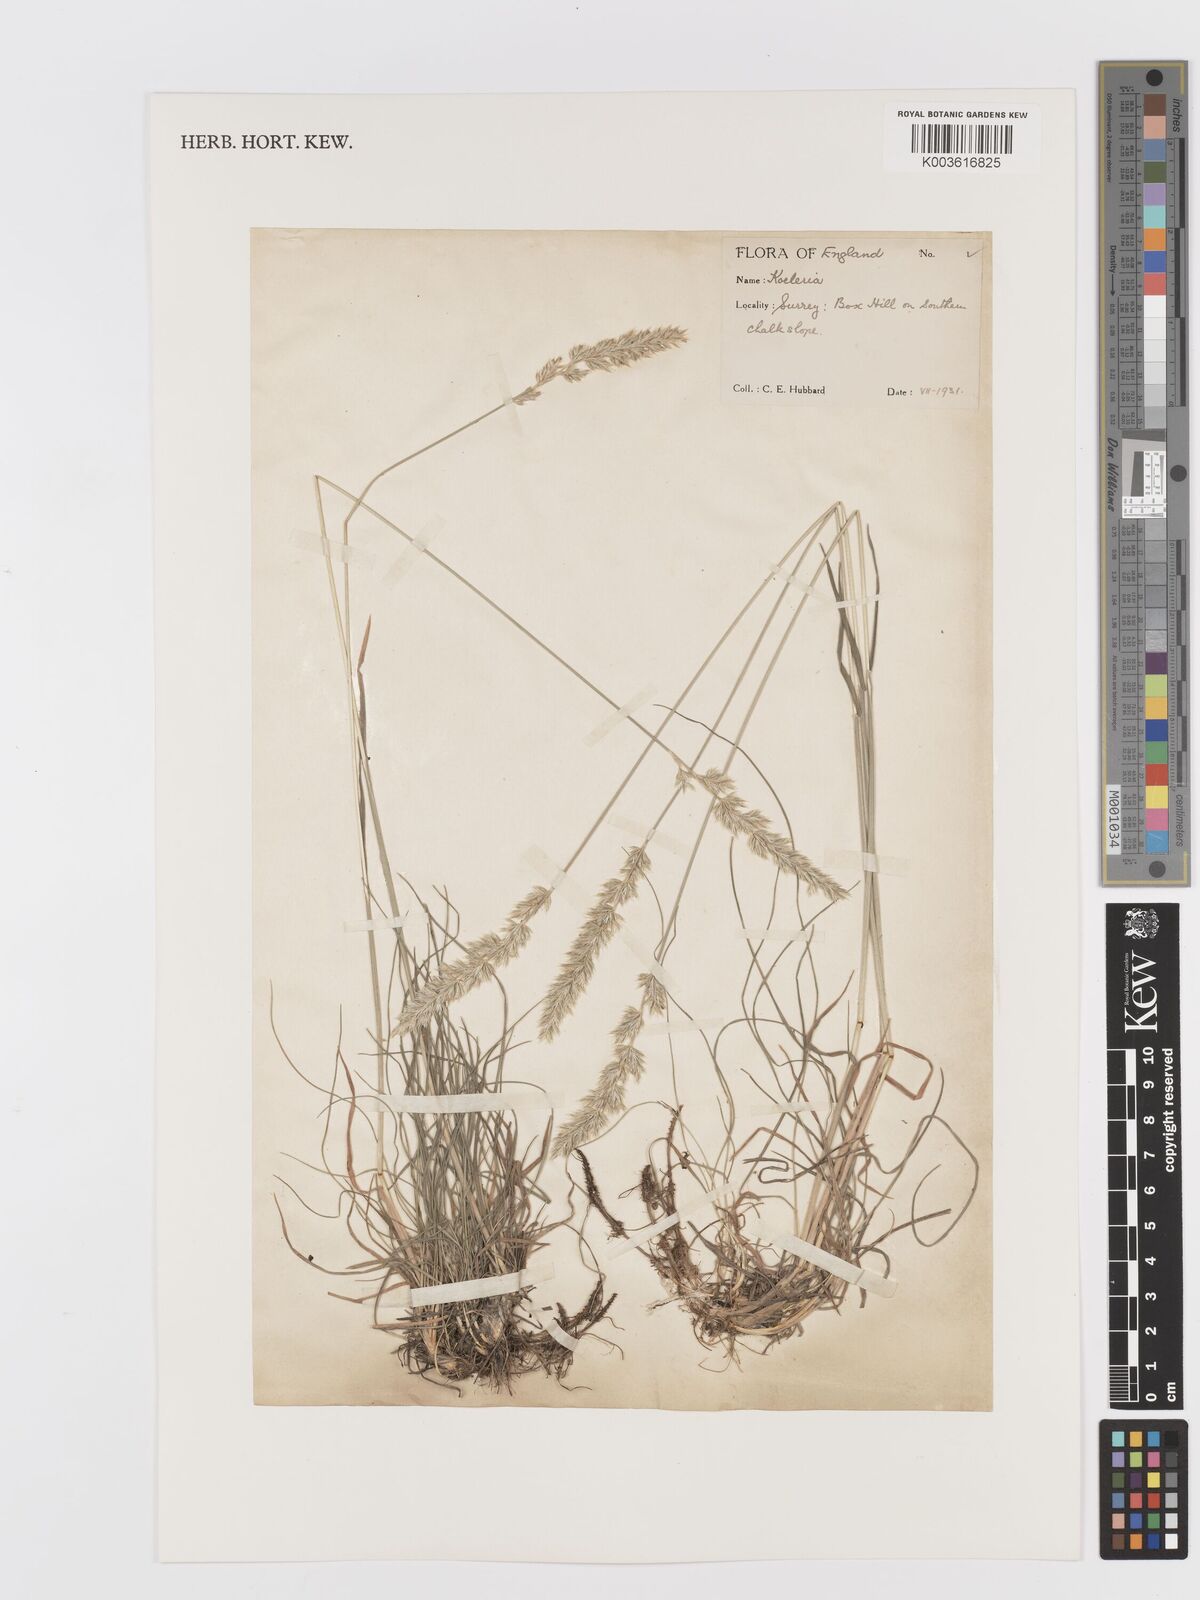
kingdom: Plantae
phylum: Tracheophyta
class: Liliopsida
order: Poales
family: Poaceae
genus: Koeleria
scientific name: Koeleria macrantha
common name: Crested hair-grass
